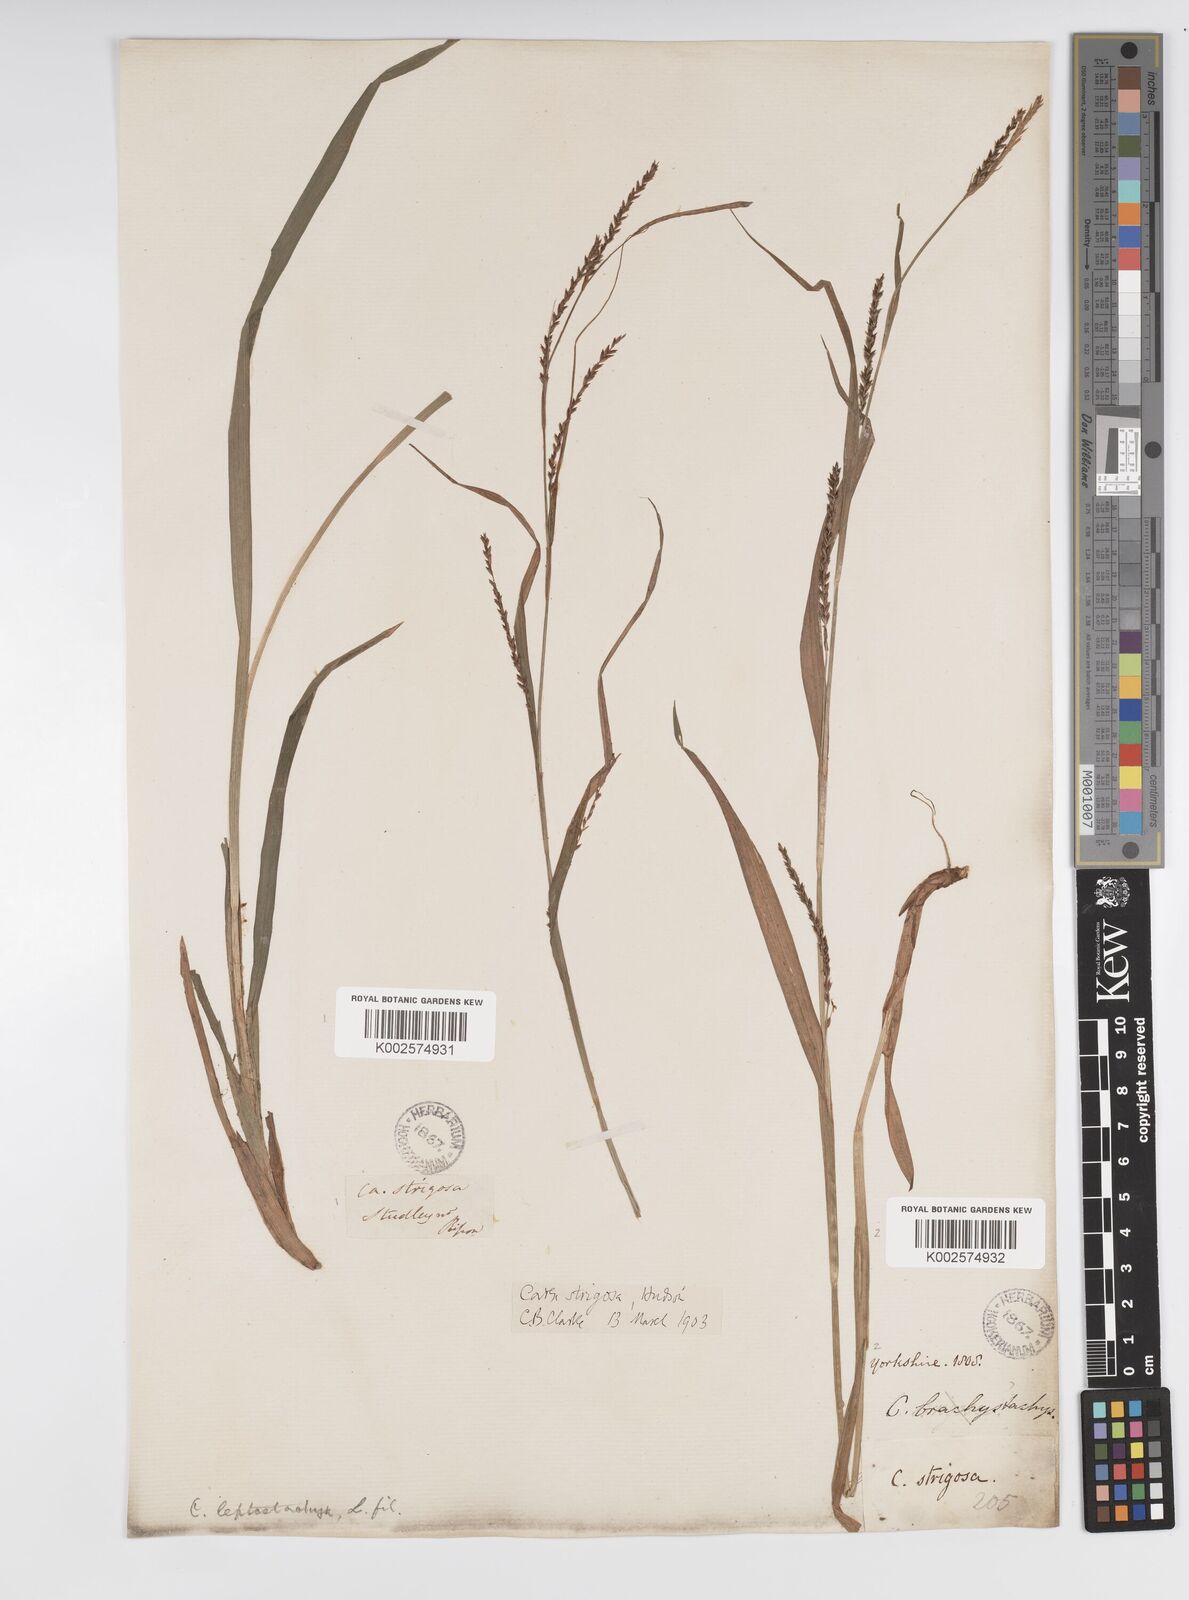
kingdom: Plantae
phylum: Tracheophyta
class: Liliopsida
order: Poales
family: Cyperaceae
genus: Carex
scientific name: Carex strigosa
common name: Thin-spiked wood-sedge
